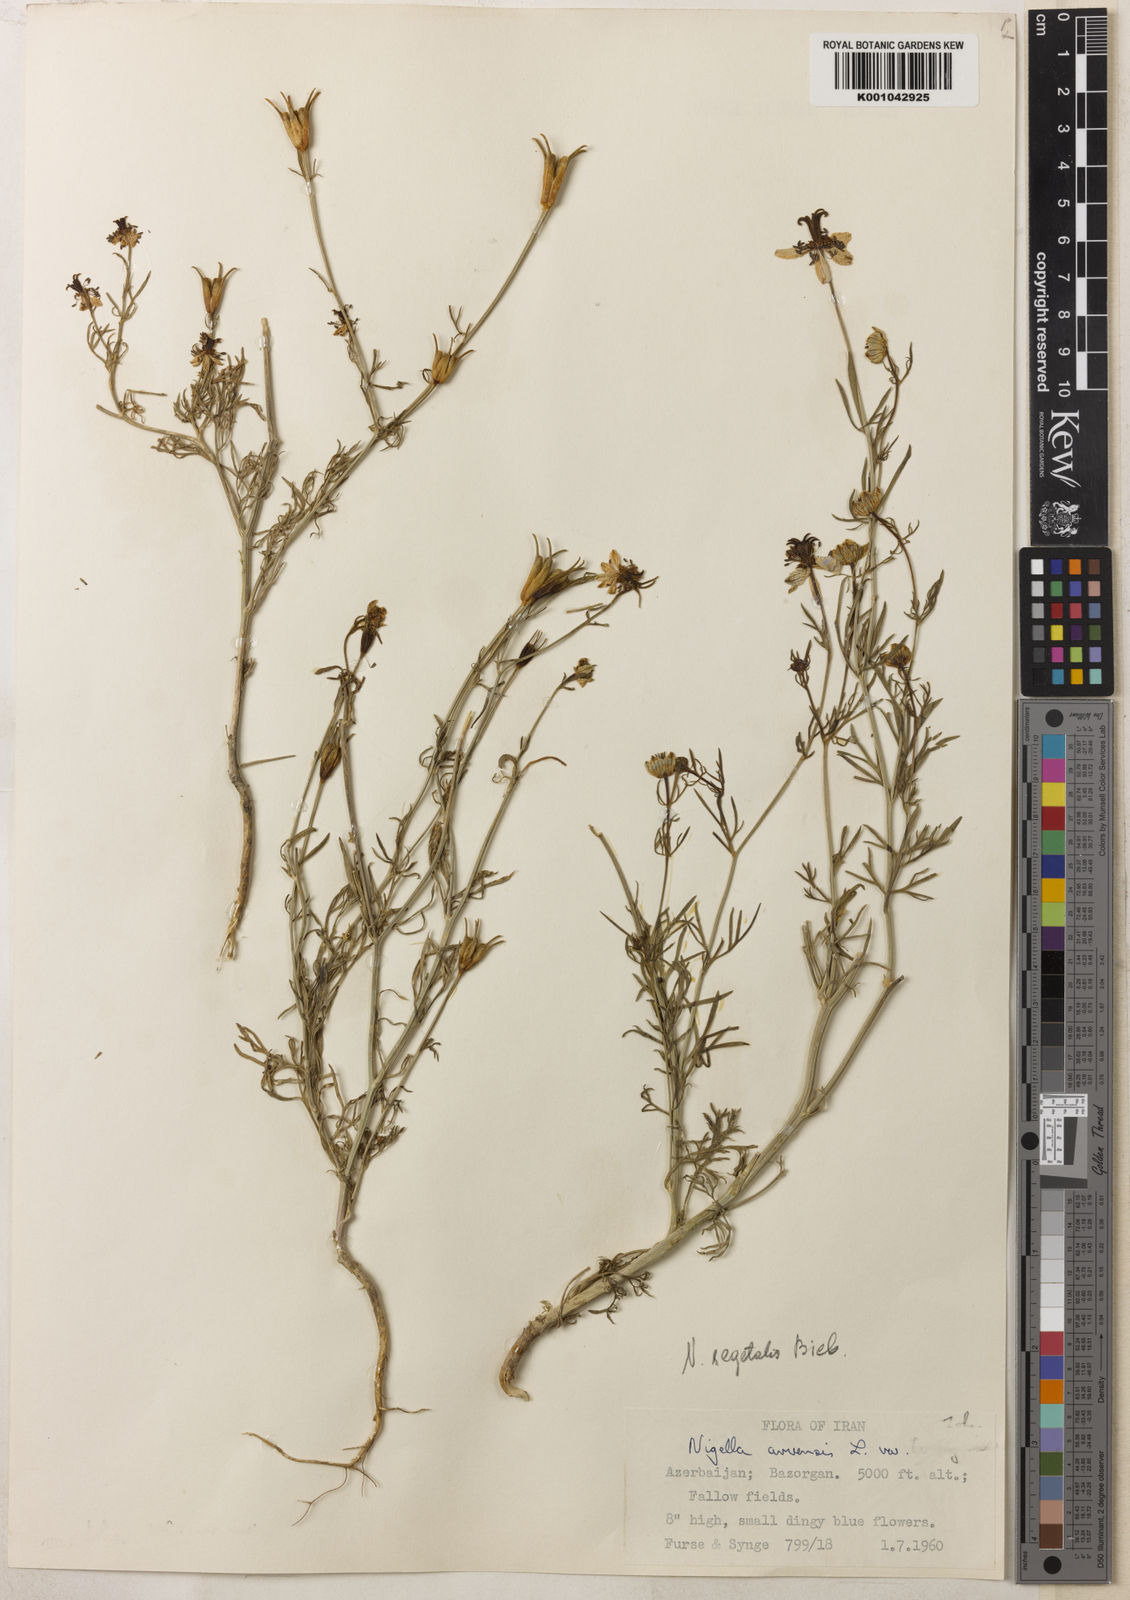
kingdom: Plantae
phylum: Tracheophyta
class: Magnoliopsida
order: Ranunculales
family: Ranunculaceae
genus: Nigella
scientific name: Nigella segetalis
